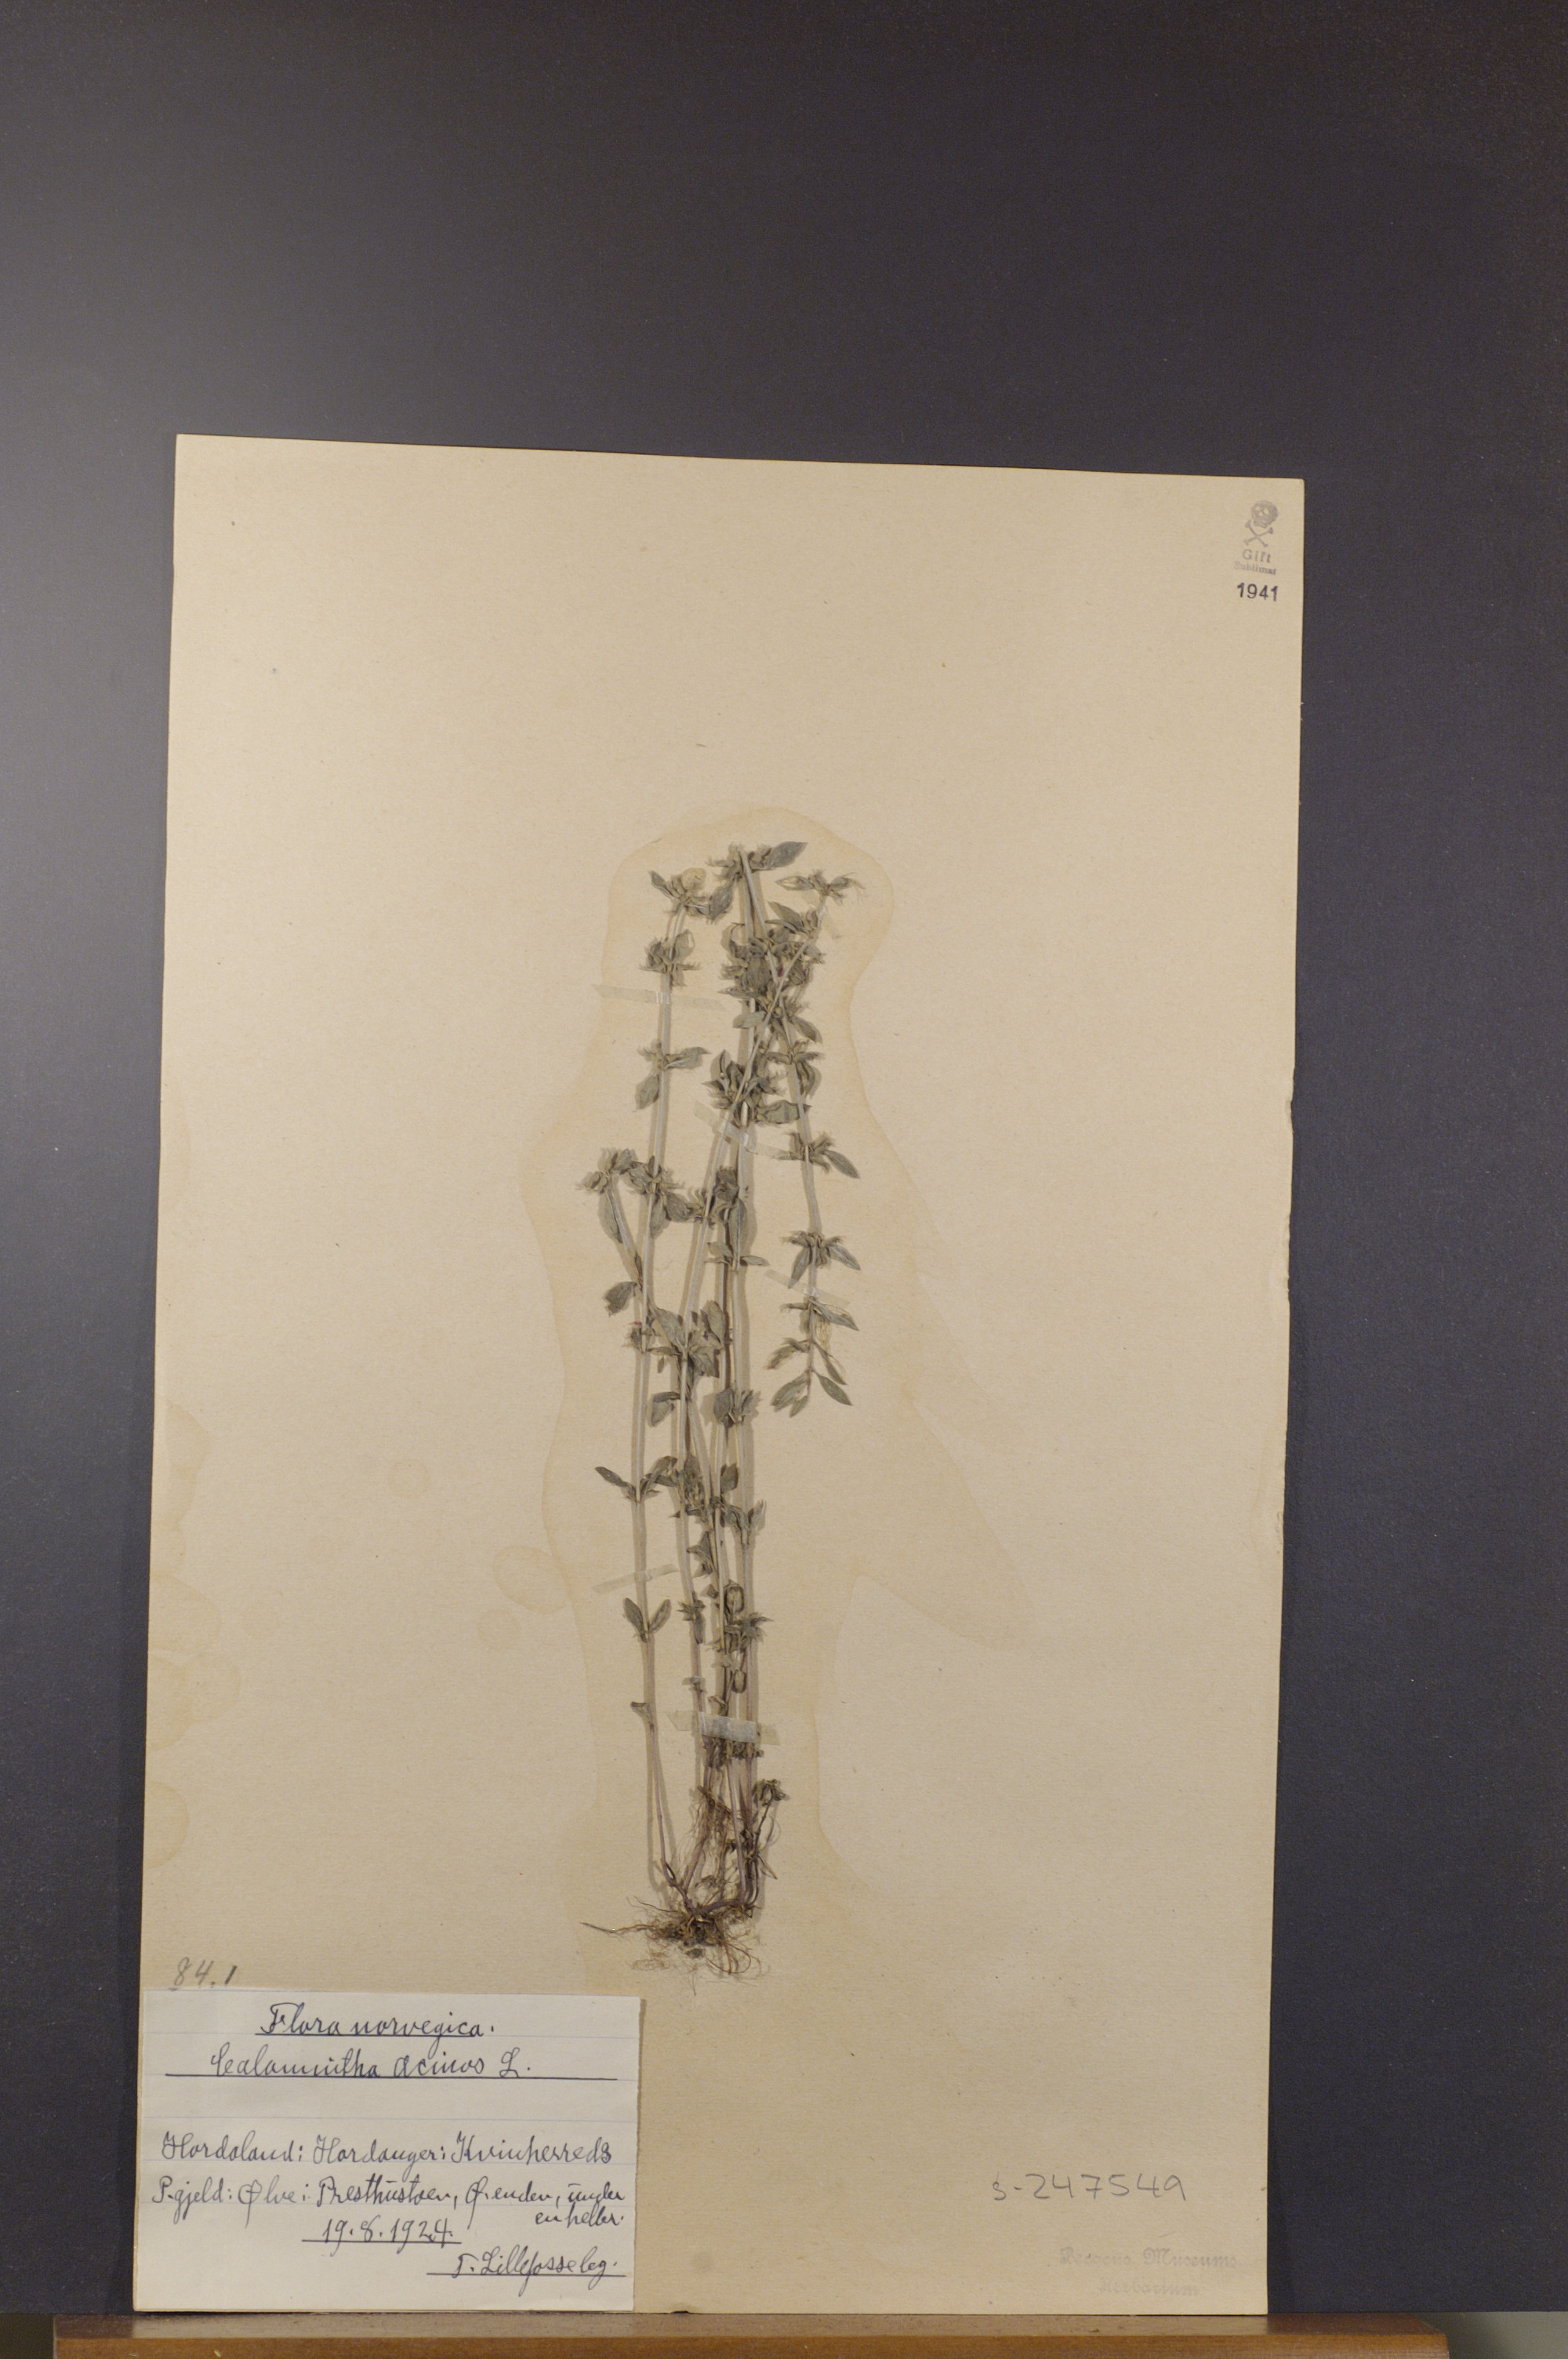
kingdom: Plantae
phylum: Tracheophyta
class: Magnoliopsida
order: Lamiales
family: Lamiaceae
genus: Clinopodium
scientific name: Clinopodium acinos
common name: Basil thyme
